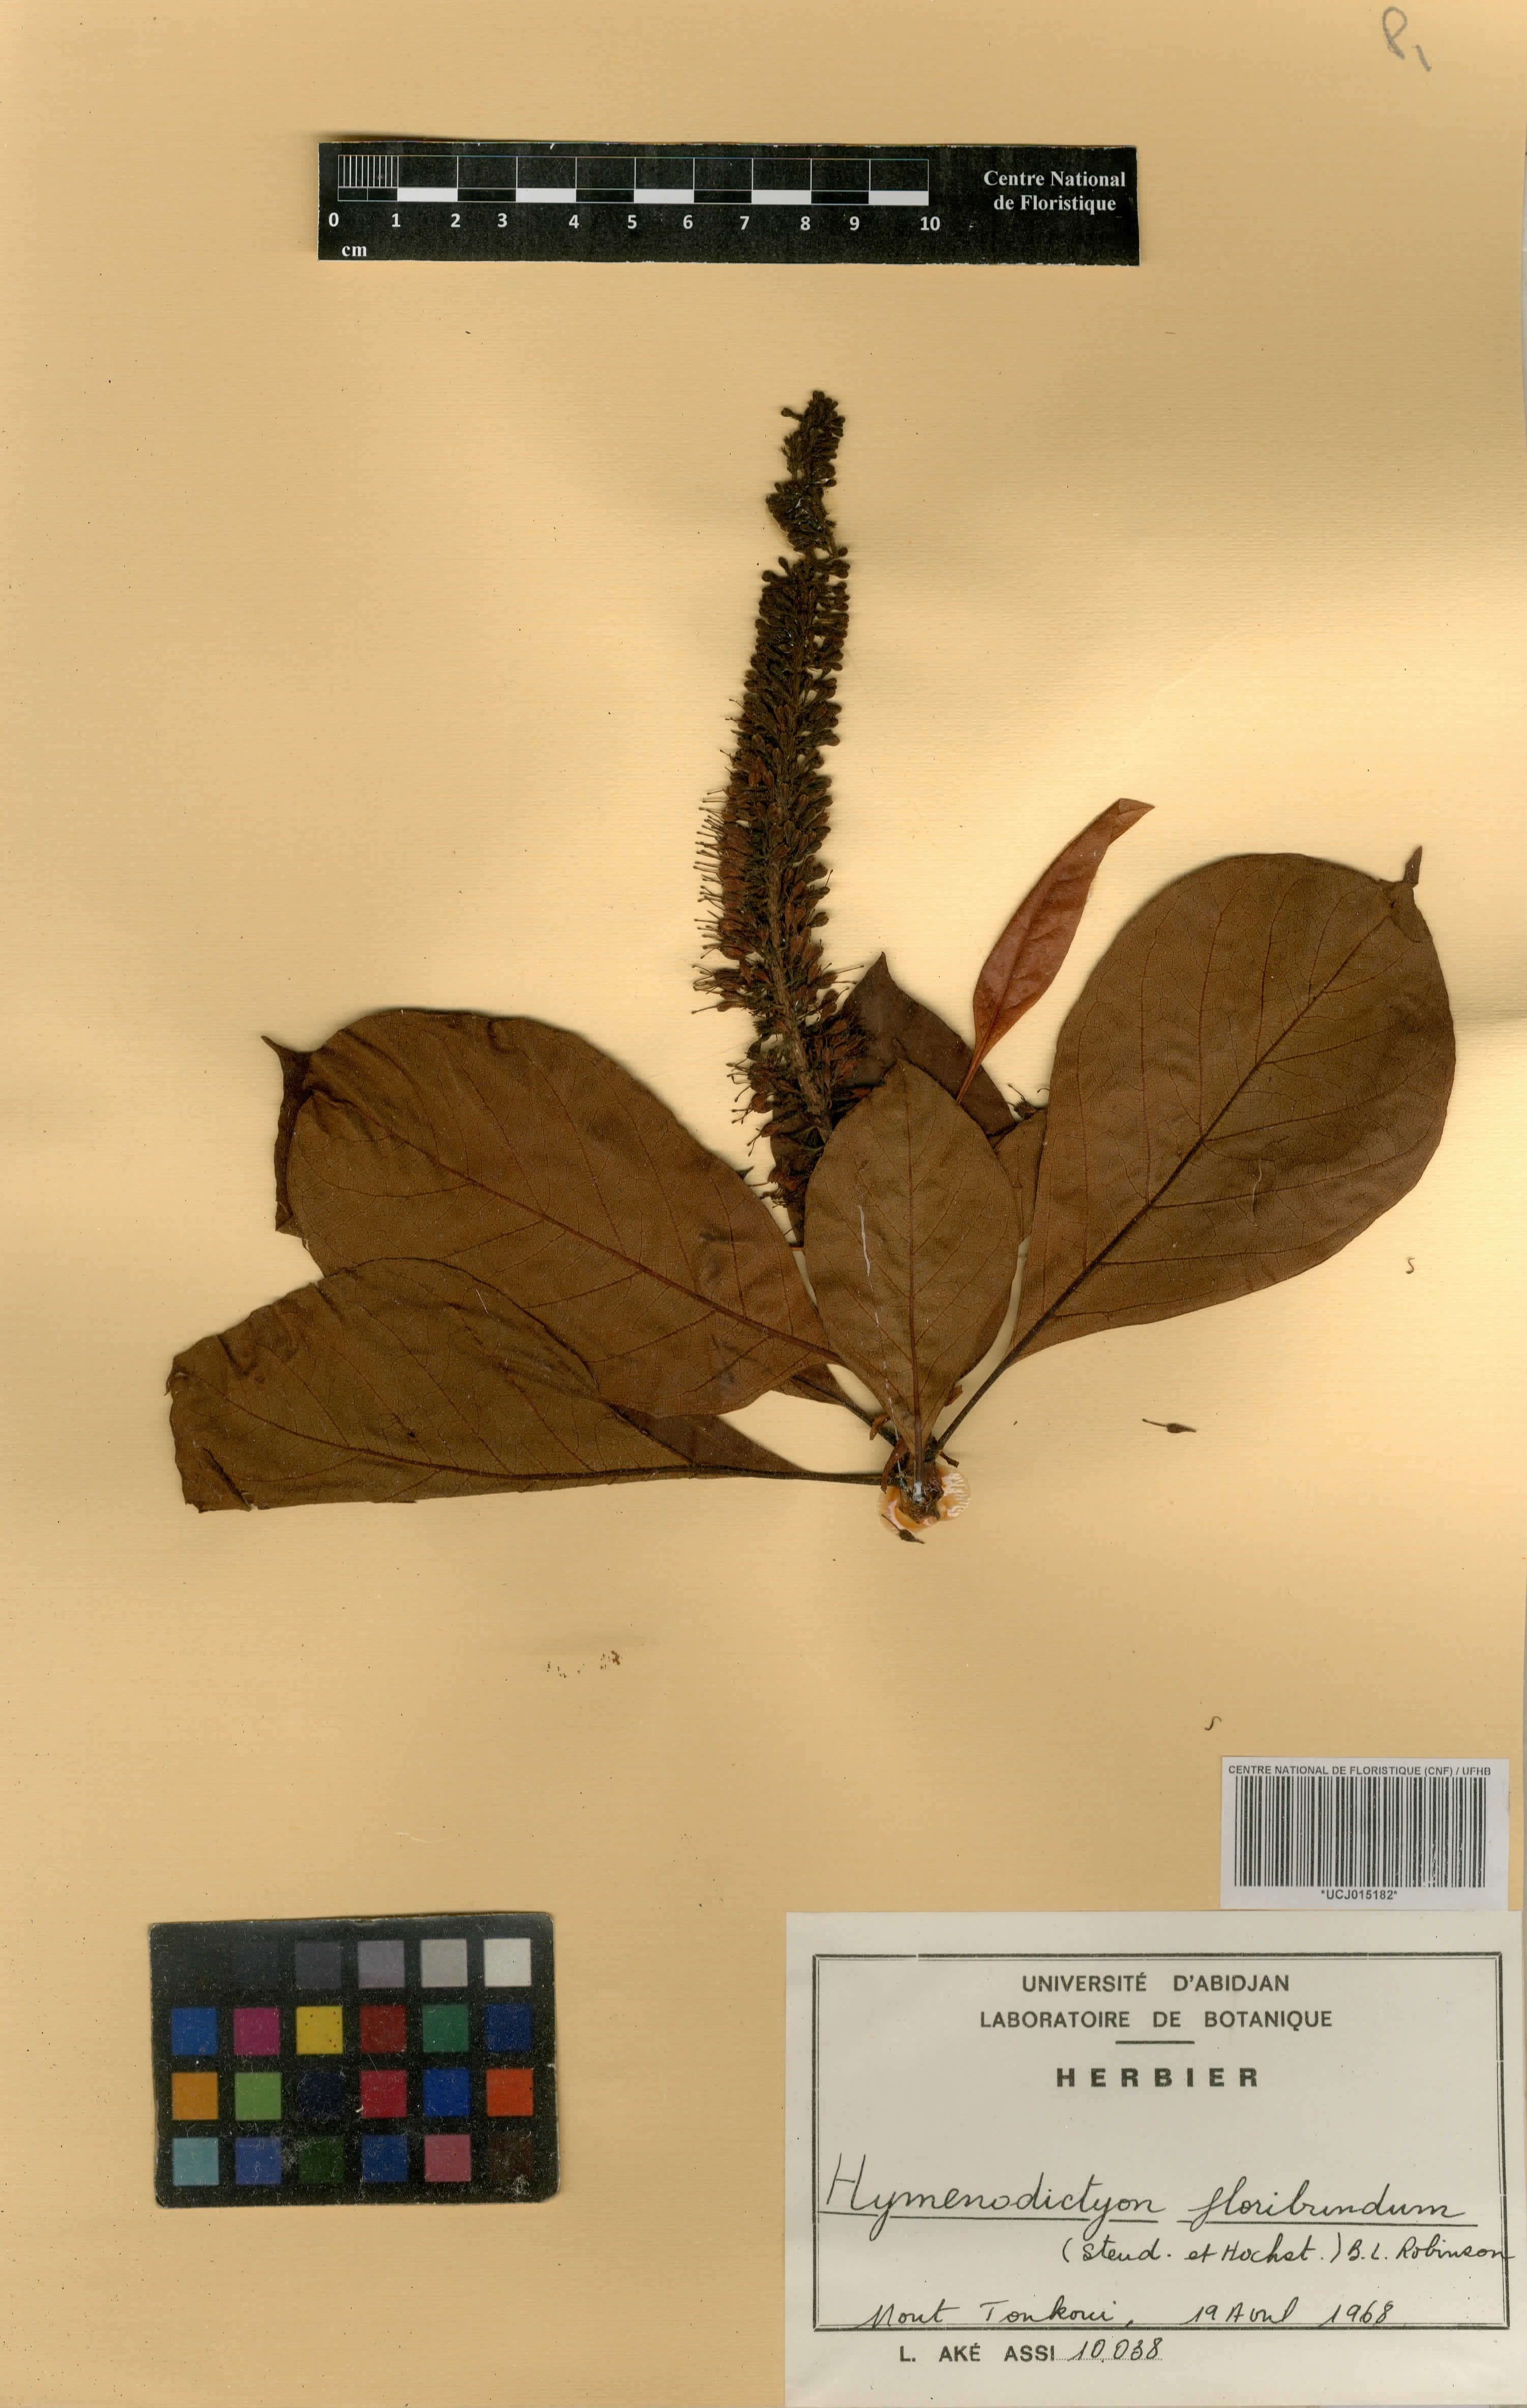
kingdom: Plantae
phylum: Tracheophyta
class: Magnoliopsida
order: Gentianales
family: Rubiaceae
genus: Hymenodictyon
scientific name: Hymenodictyon floribundum
